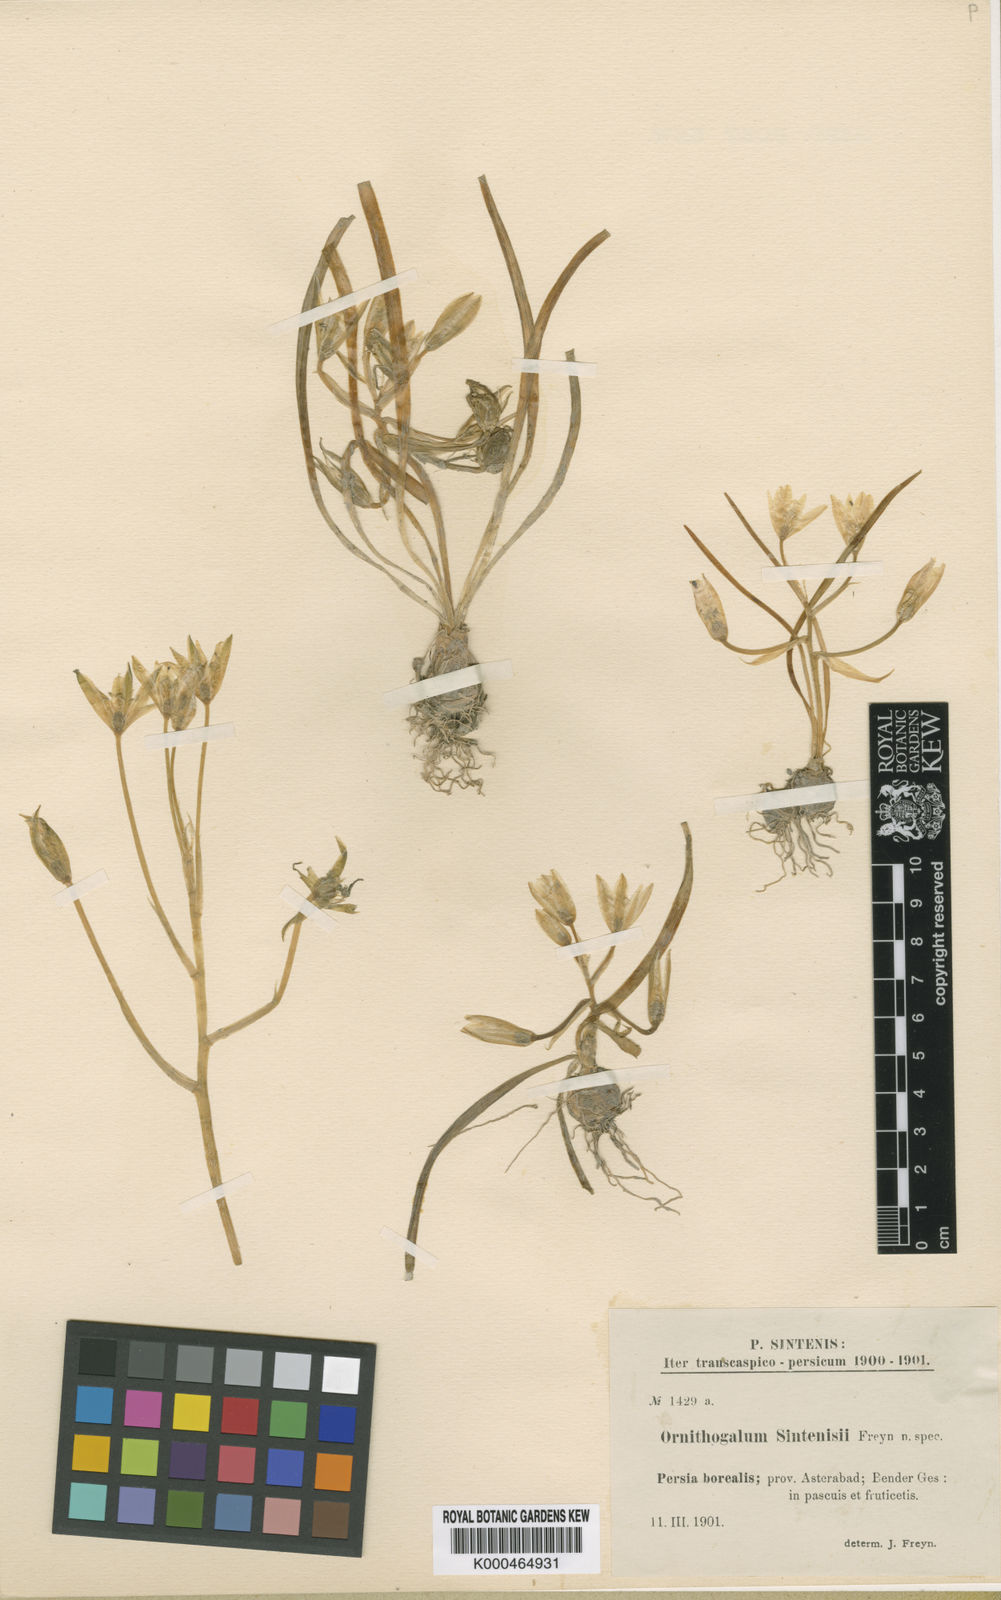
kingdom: Plantae
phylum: Tracheophyta
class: Liliopsida
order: Asparagales
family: Asparagaceae
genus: Ornithogalum
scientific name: Ornithogalum sintenisii
